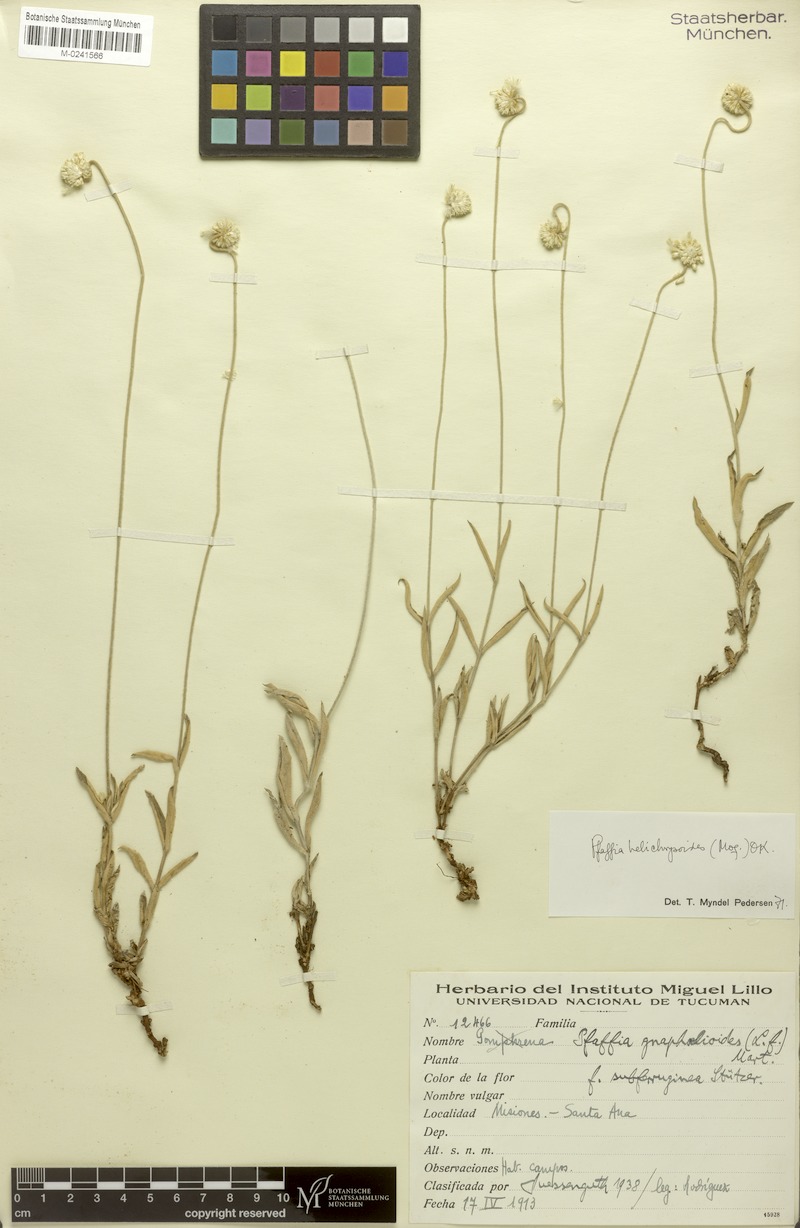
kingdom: Plantae
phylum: Tracheophyta
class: Magnoliopsida
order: Caryophyllales
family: Amaranthaceae
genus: Pfaffia
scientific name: Pfaffia gnaphalioides
